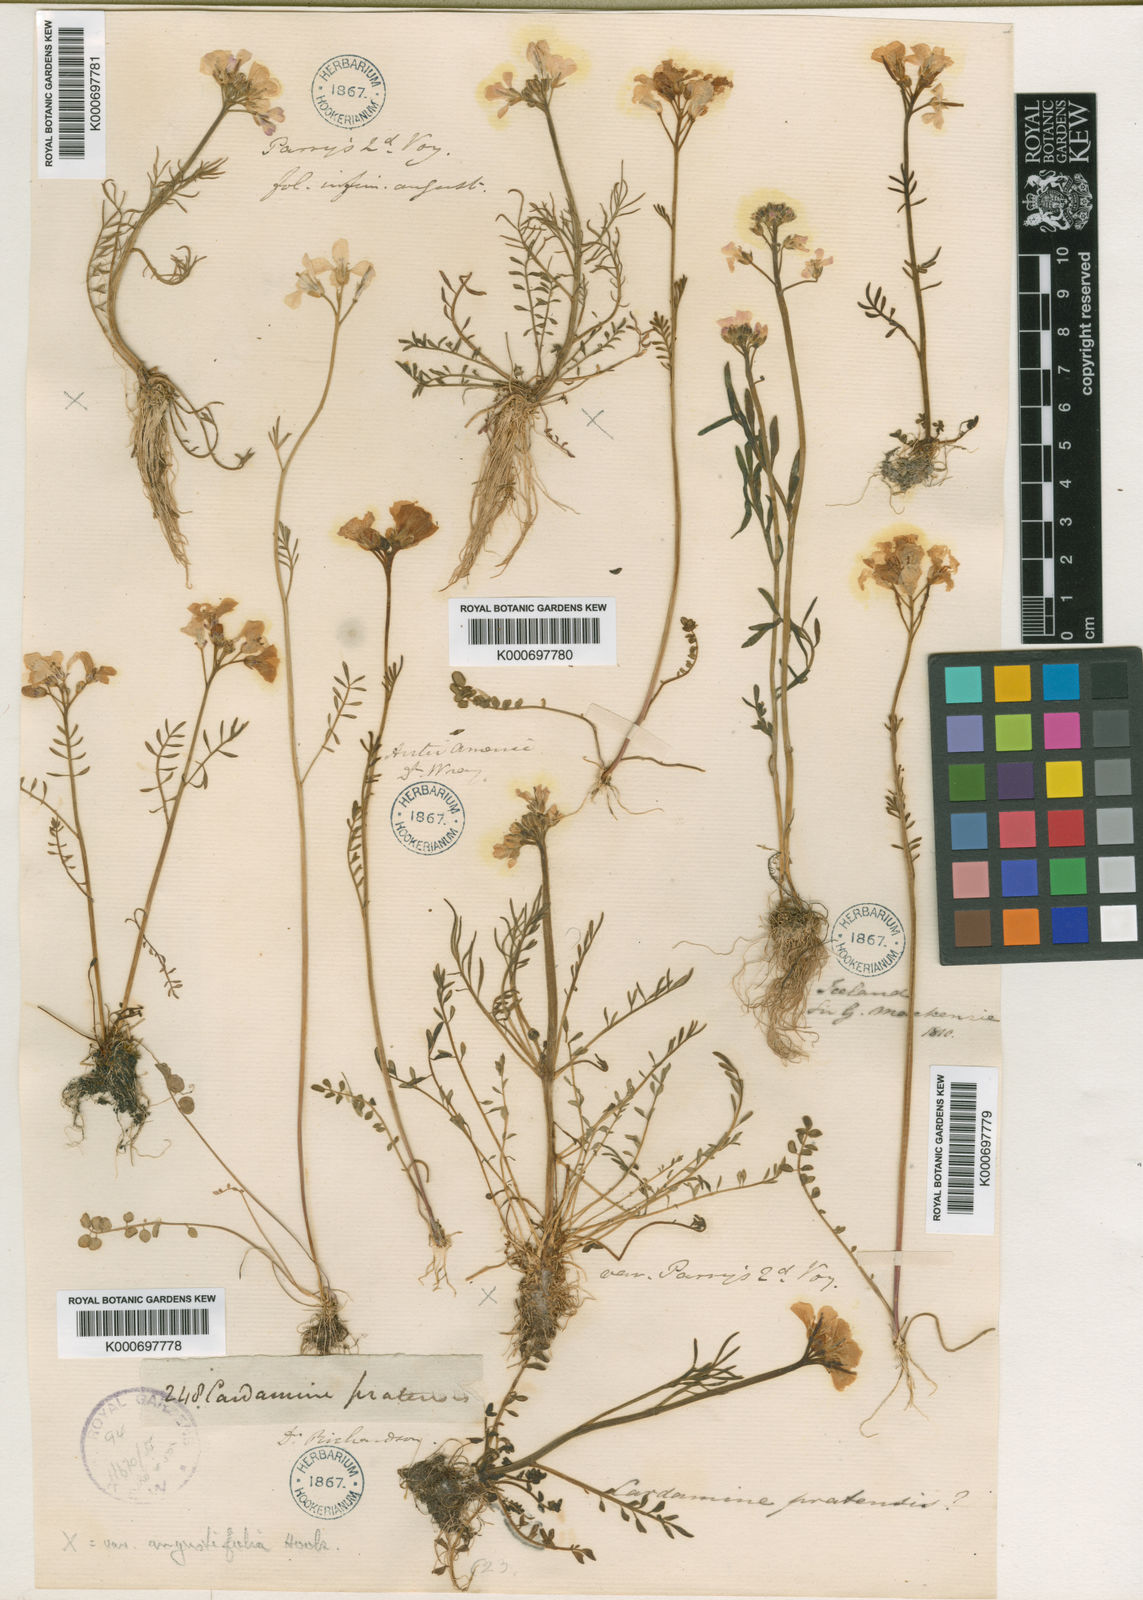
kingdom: Plantae
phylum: Tracheophyta
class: Magnoliopsida
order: Brassicales
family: Brassicaceae
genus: Cardamine
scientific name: Cardamine nymanii
